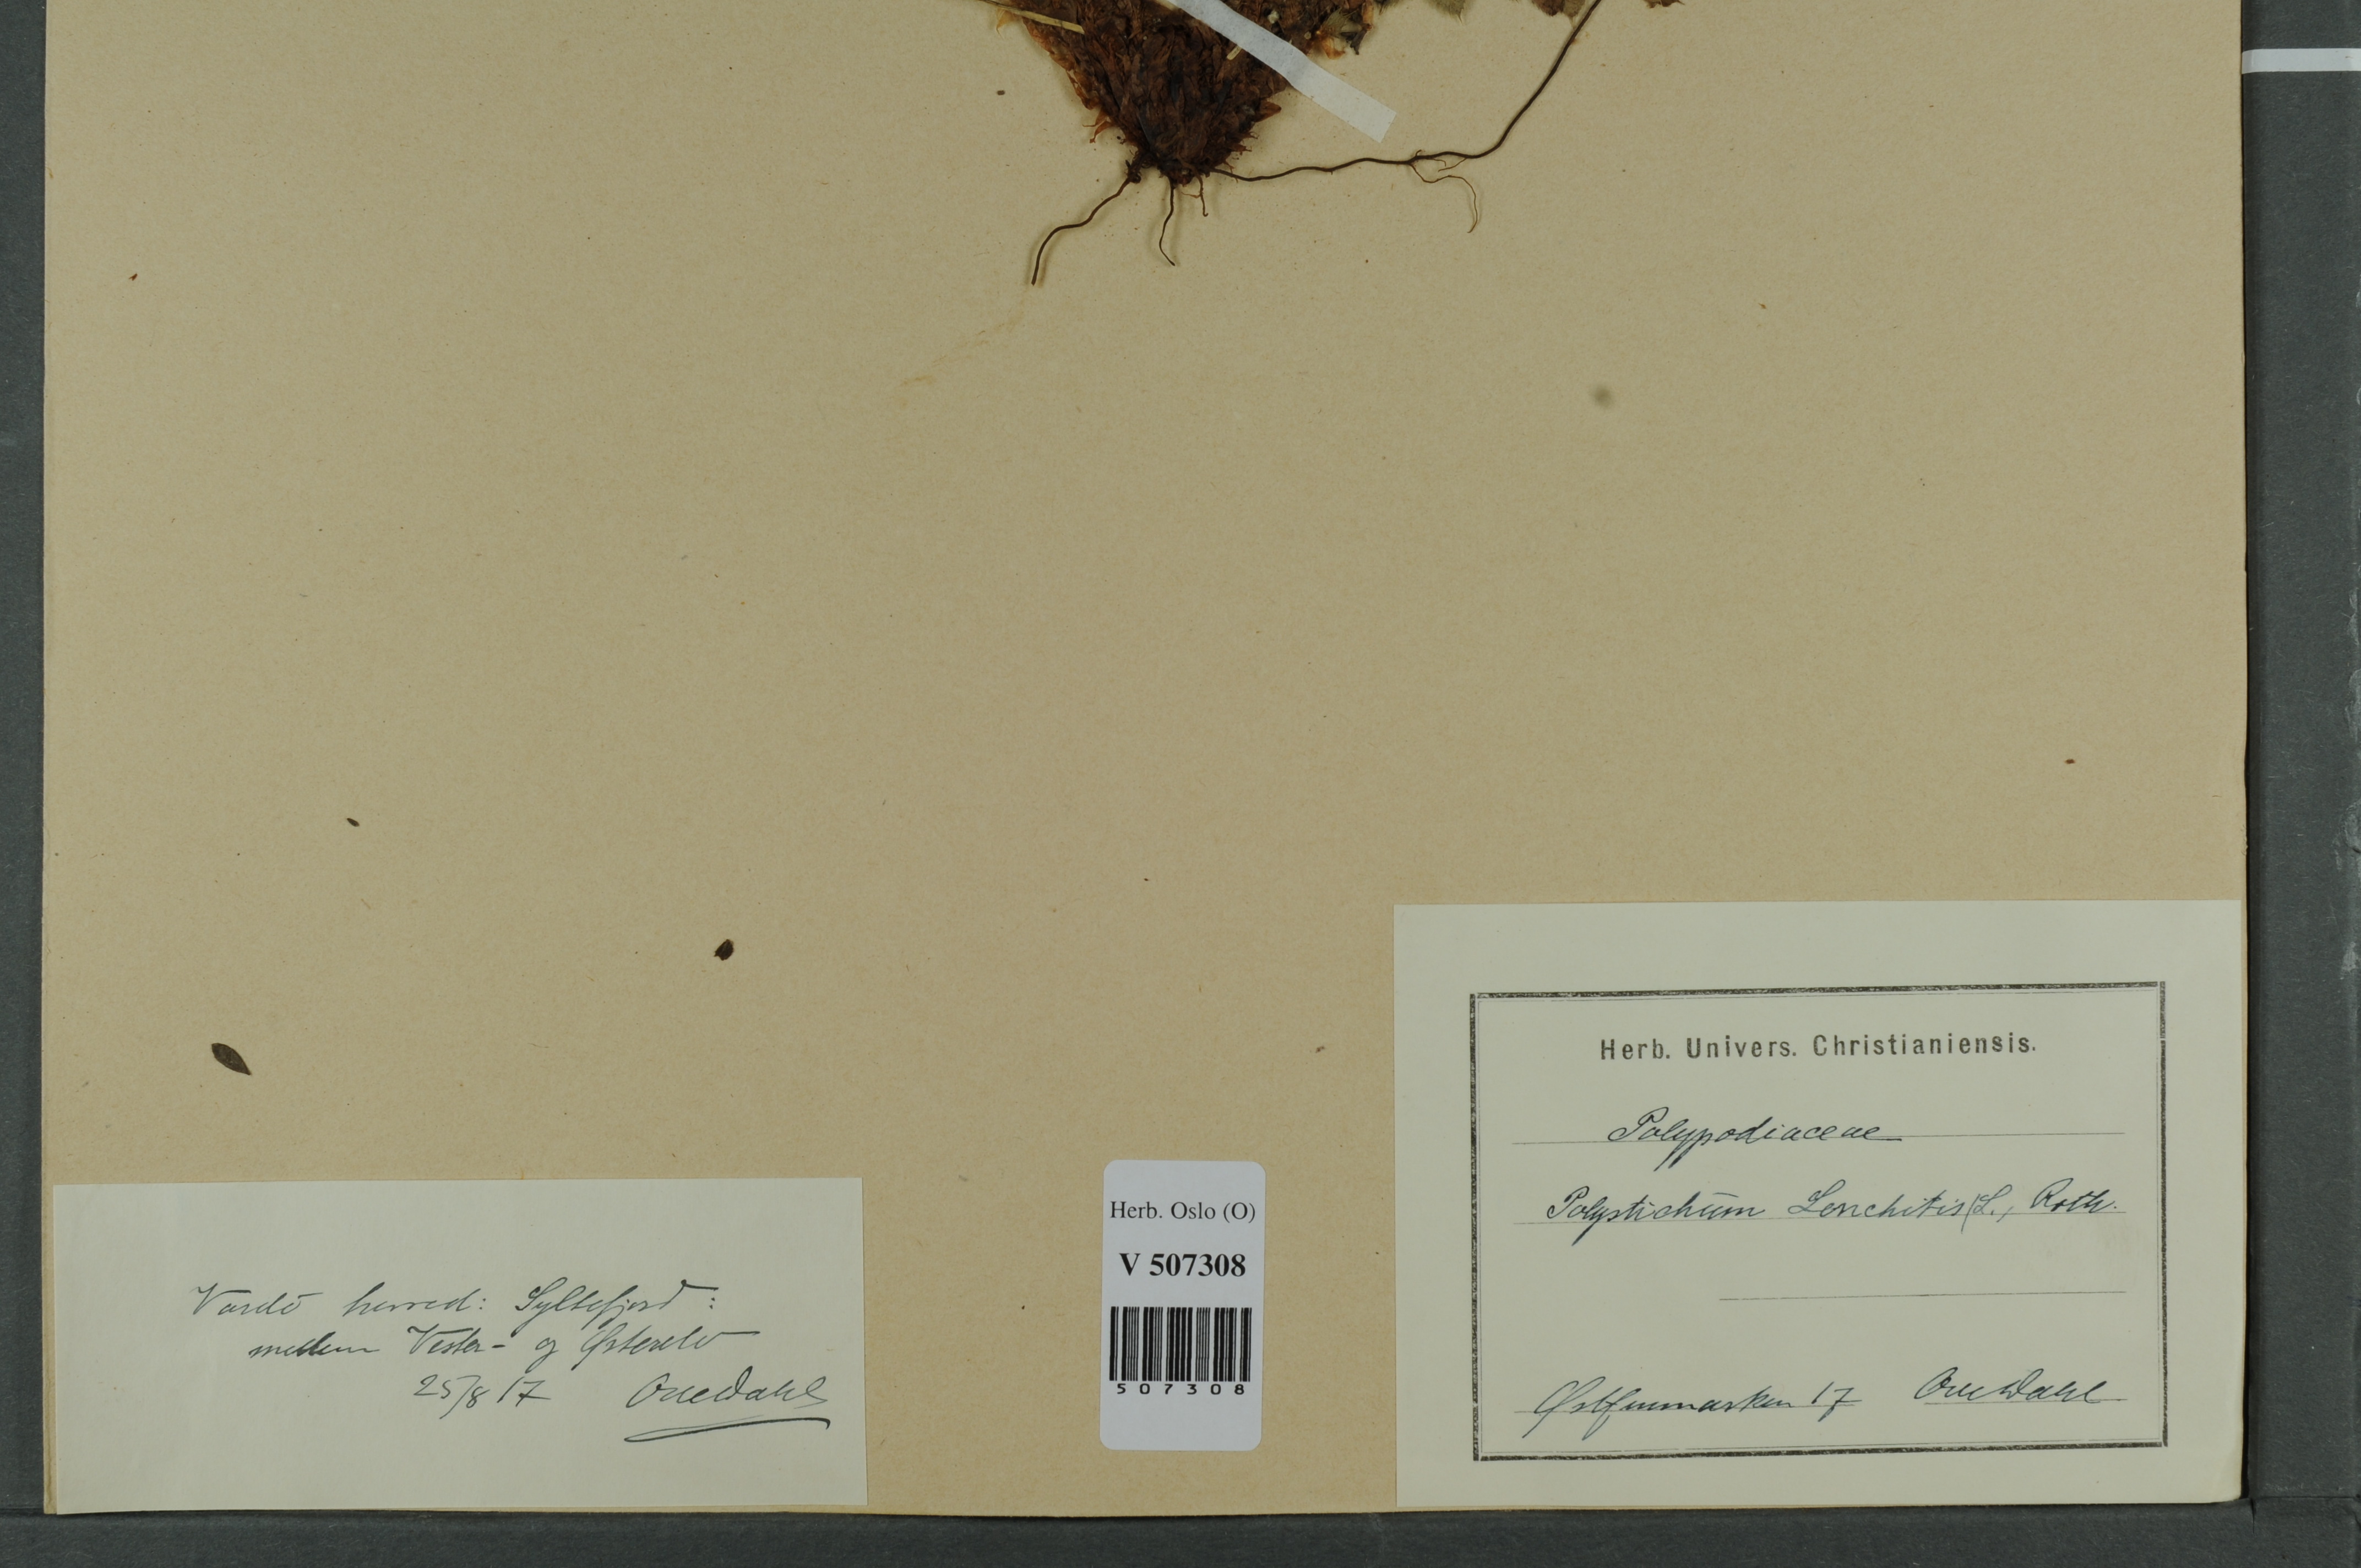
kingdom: Plantae
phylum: Tracheophyta
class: Polypodiopsida
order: Polypodiales
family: Dryopteridaceae
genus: Polystichum
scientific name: Polystichum lonchitis
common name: Holly fern
